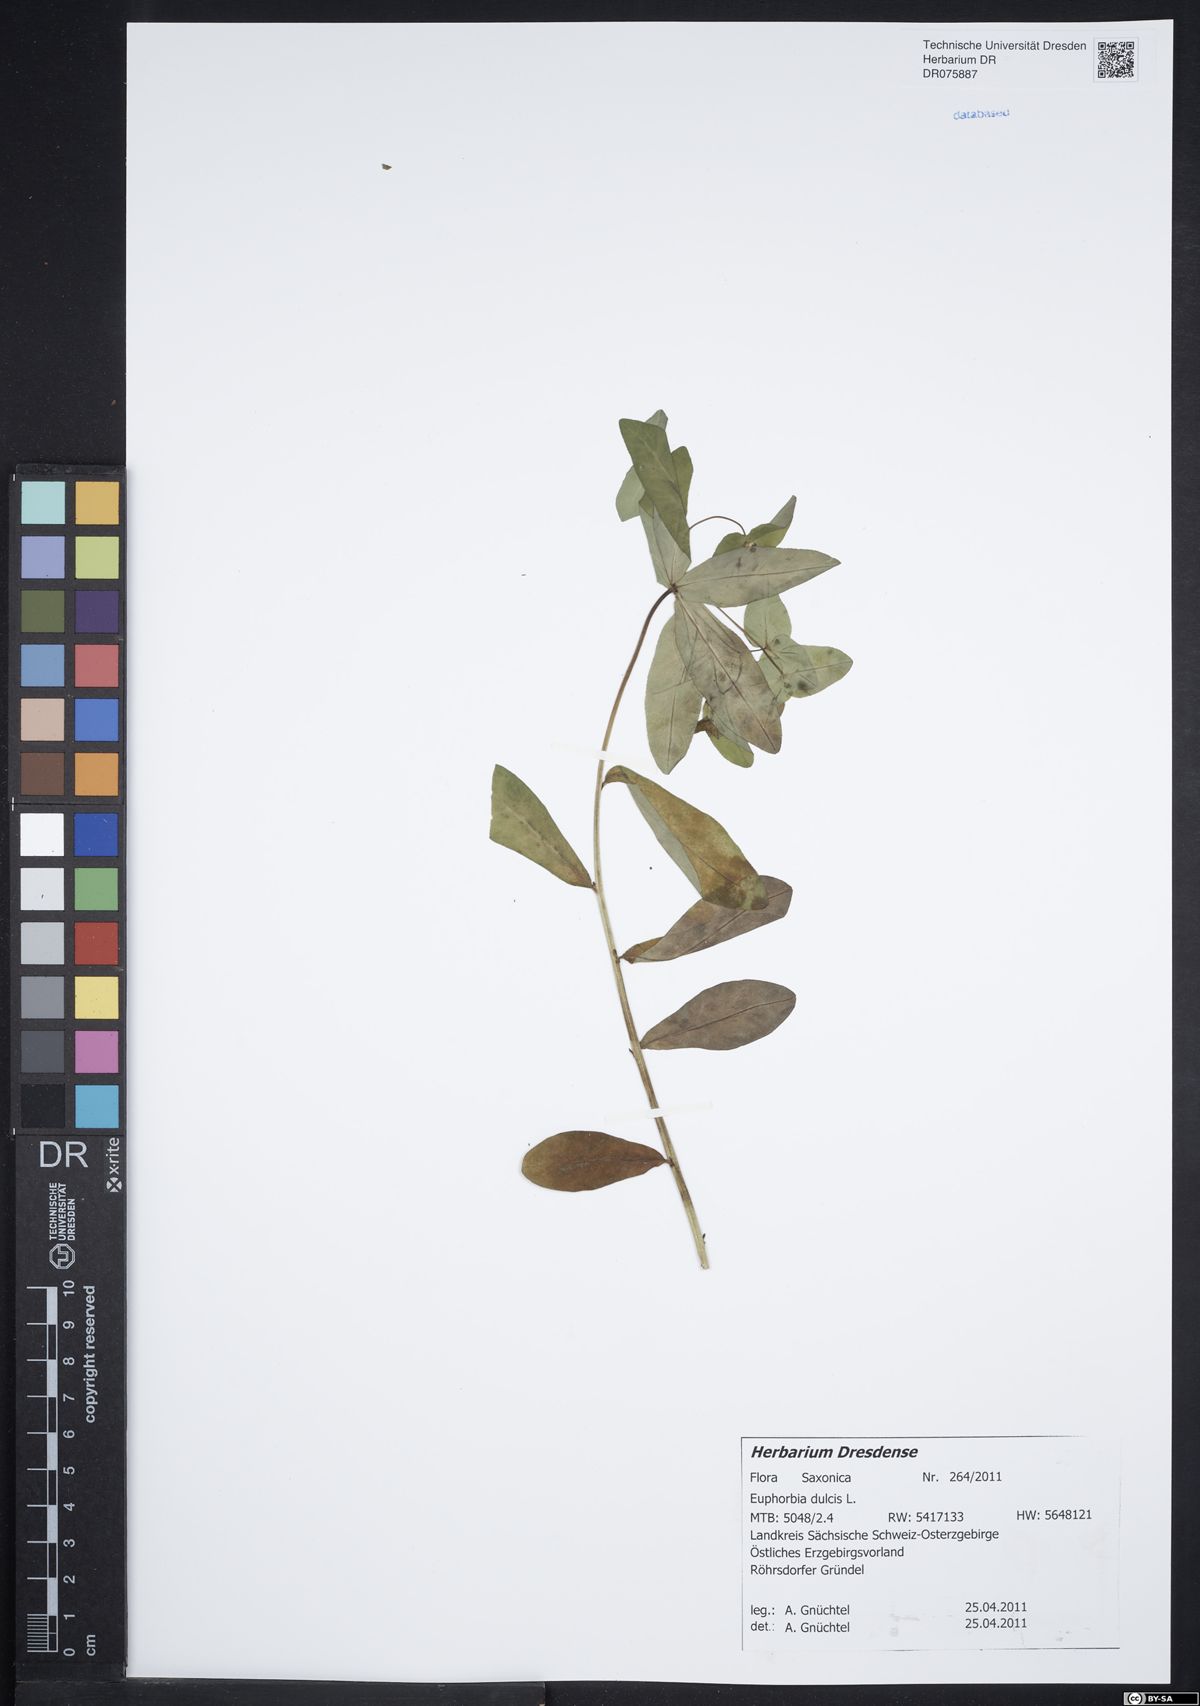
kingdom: Plantae
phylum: Tracheophyta
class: Magnoliopsida
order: Malpighiales
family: Euphorbiaceae
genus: Euphorbia
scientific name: Euphorbia dulcis
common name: Sweet spurge
